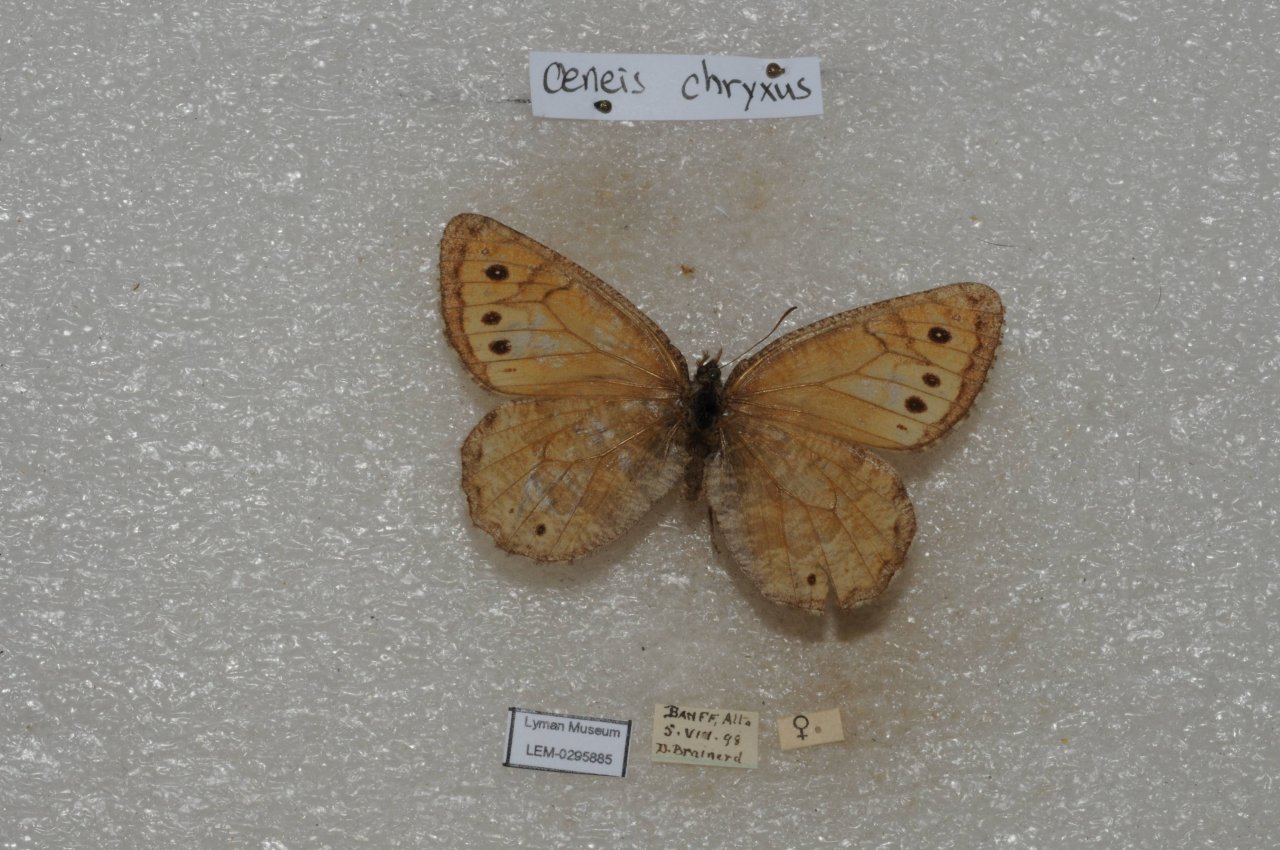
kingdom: Animalia
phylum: Arthropoda
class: Insecta
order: Lepidoptera
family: Nymphalidae
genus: Oeneis
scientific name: Oeneis chryxus
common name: Chryxus Arctic
